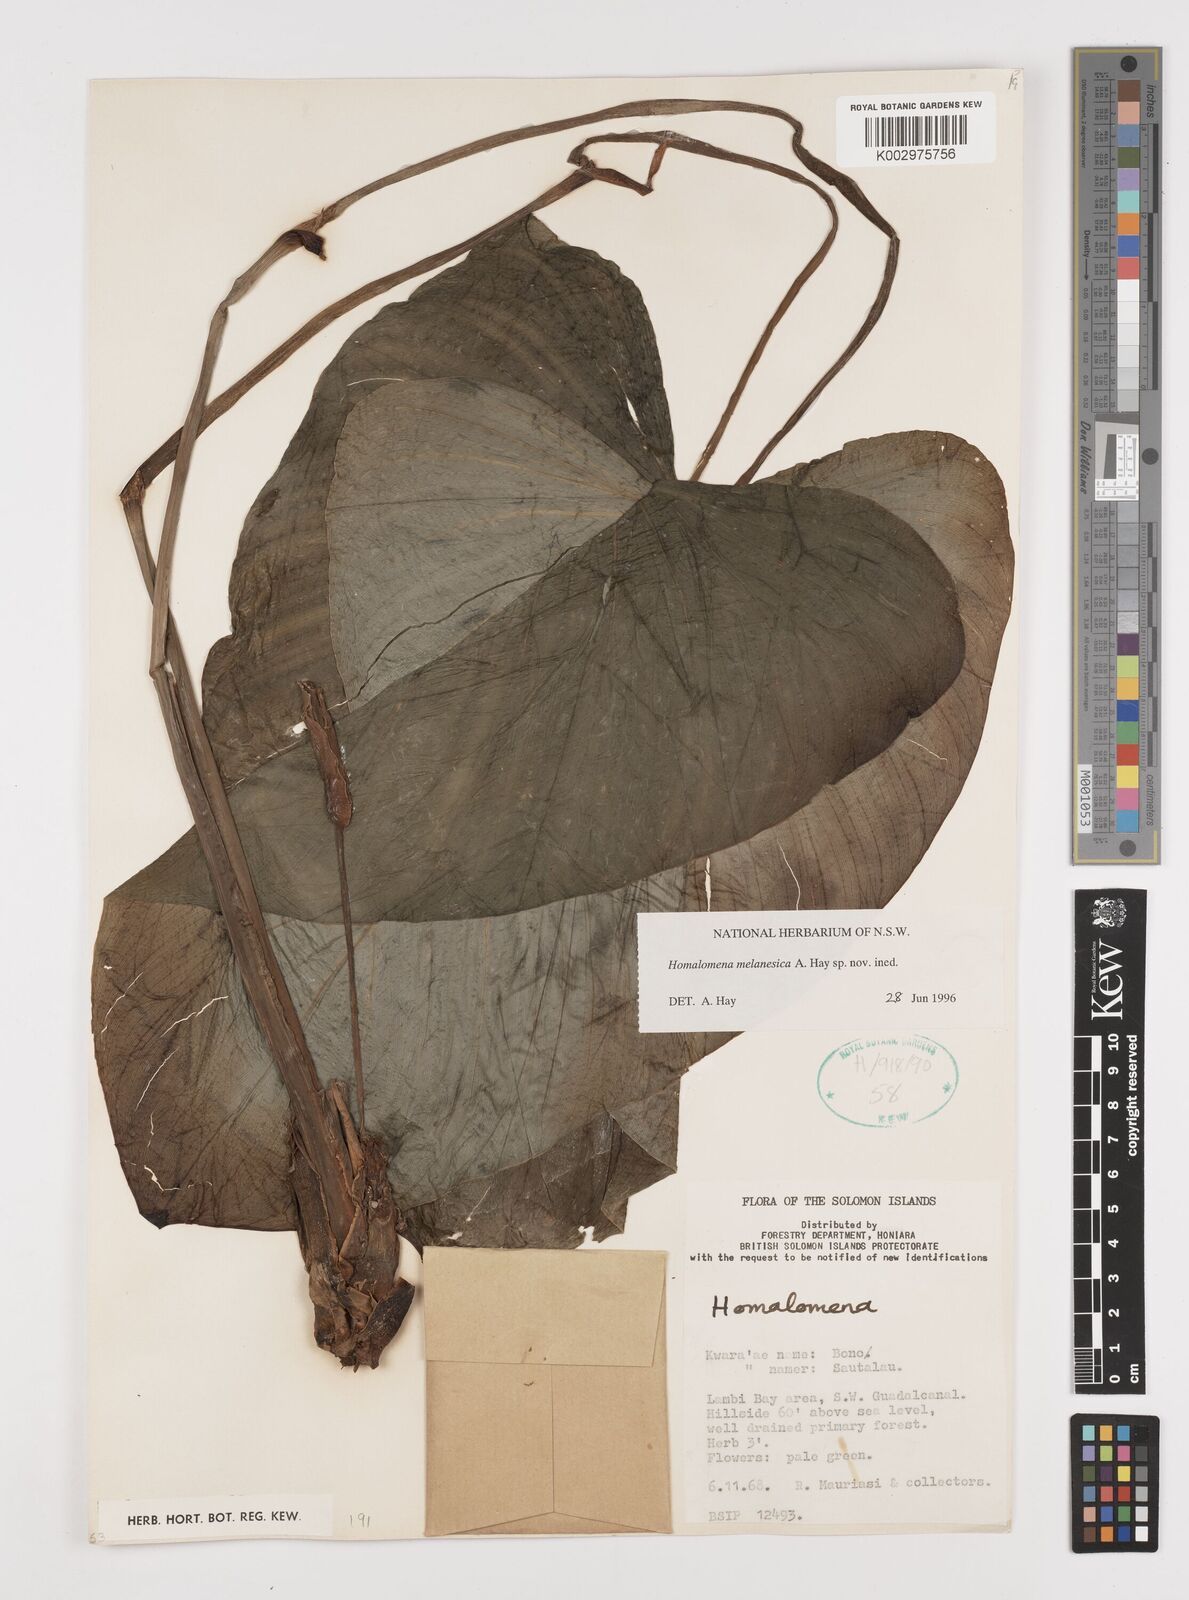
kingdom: Plantae
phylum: Tracheophyta
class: Liliopsida
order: Alismatales
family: Araceae
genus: Homalomena
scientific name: Homalomena melanesica
